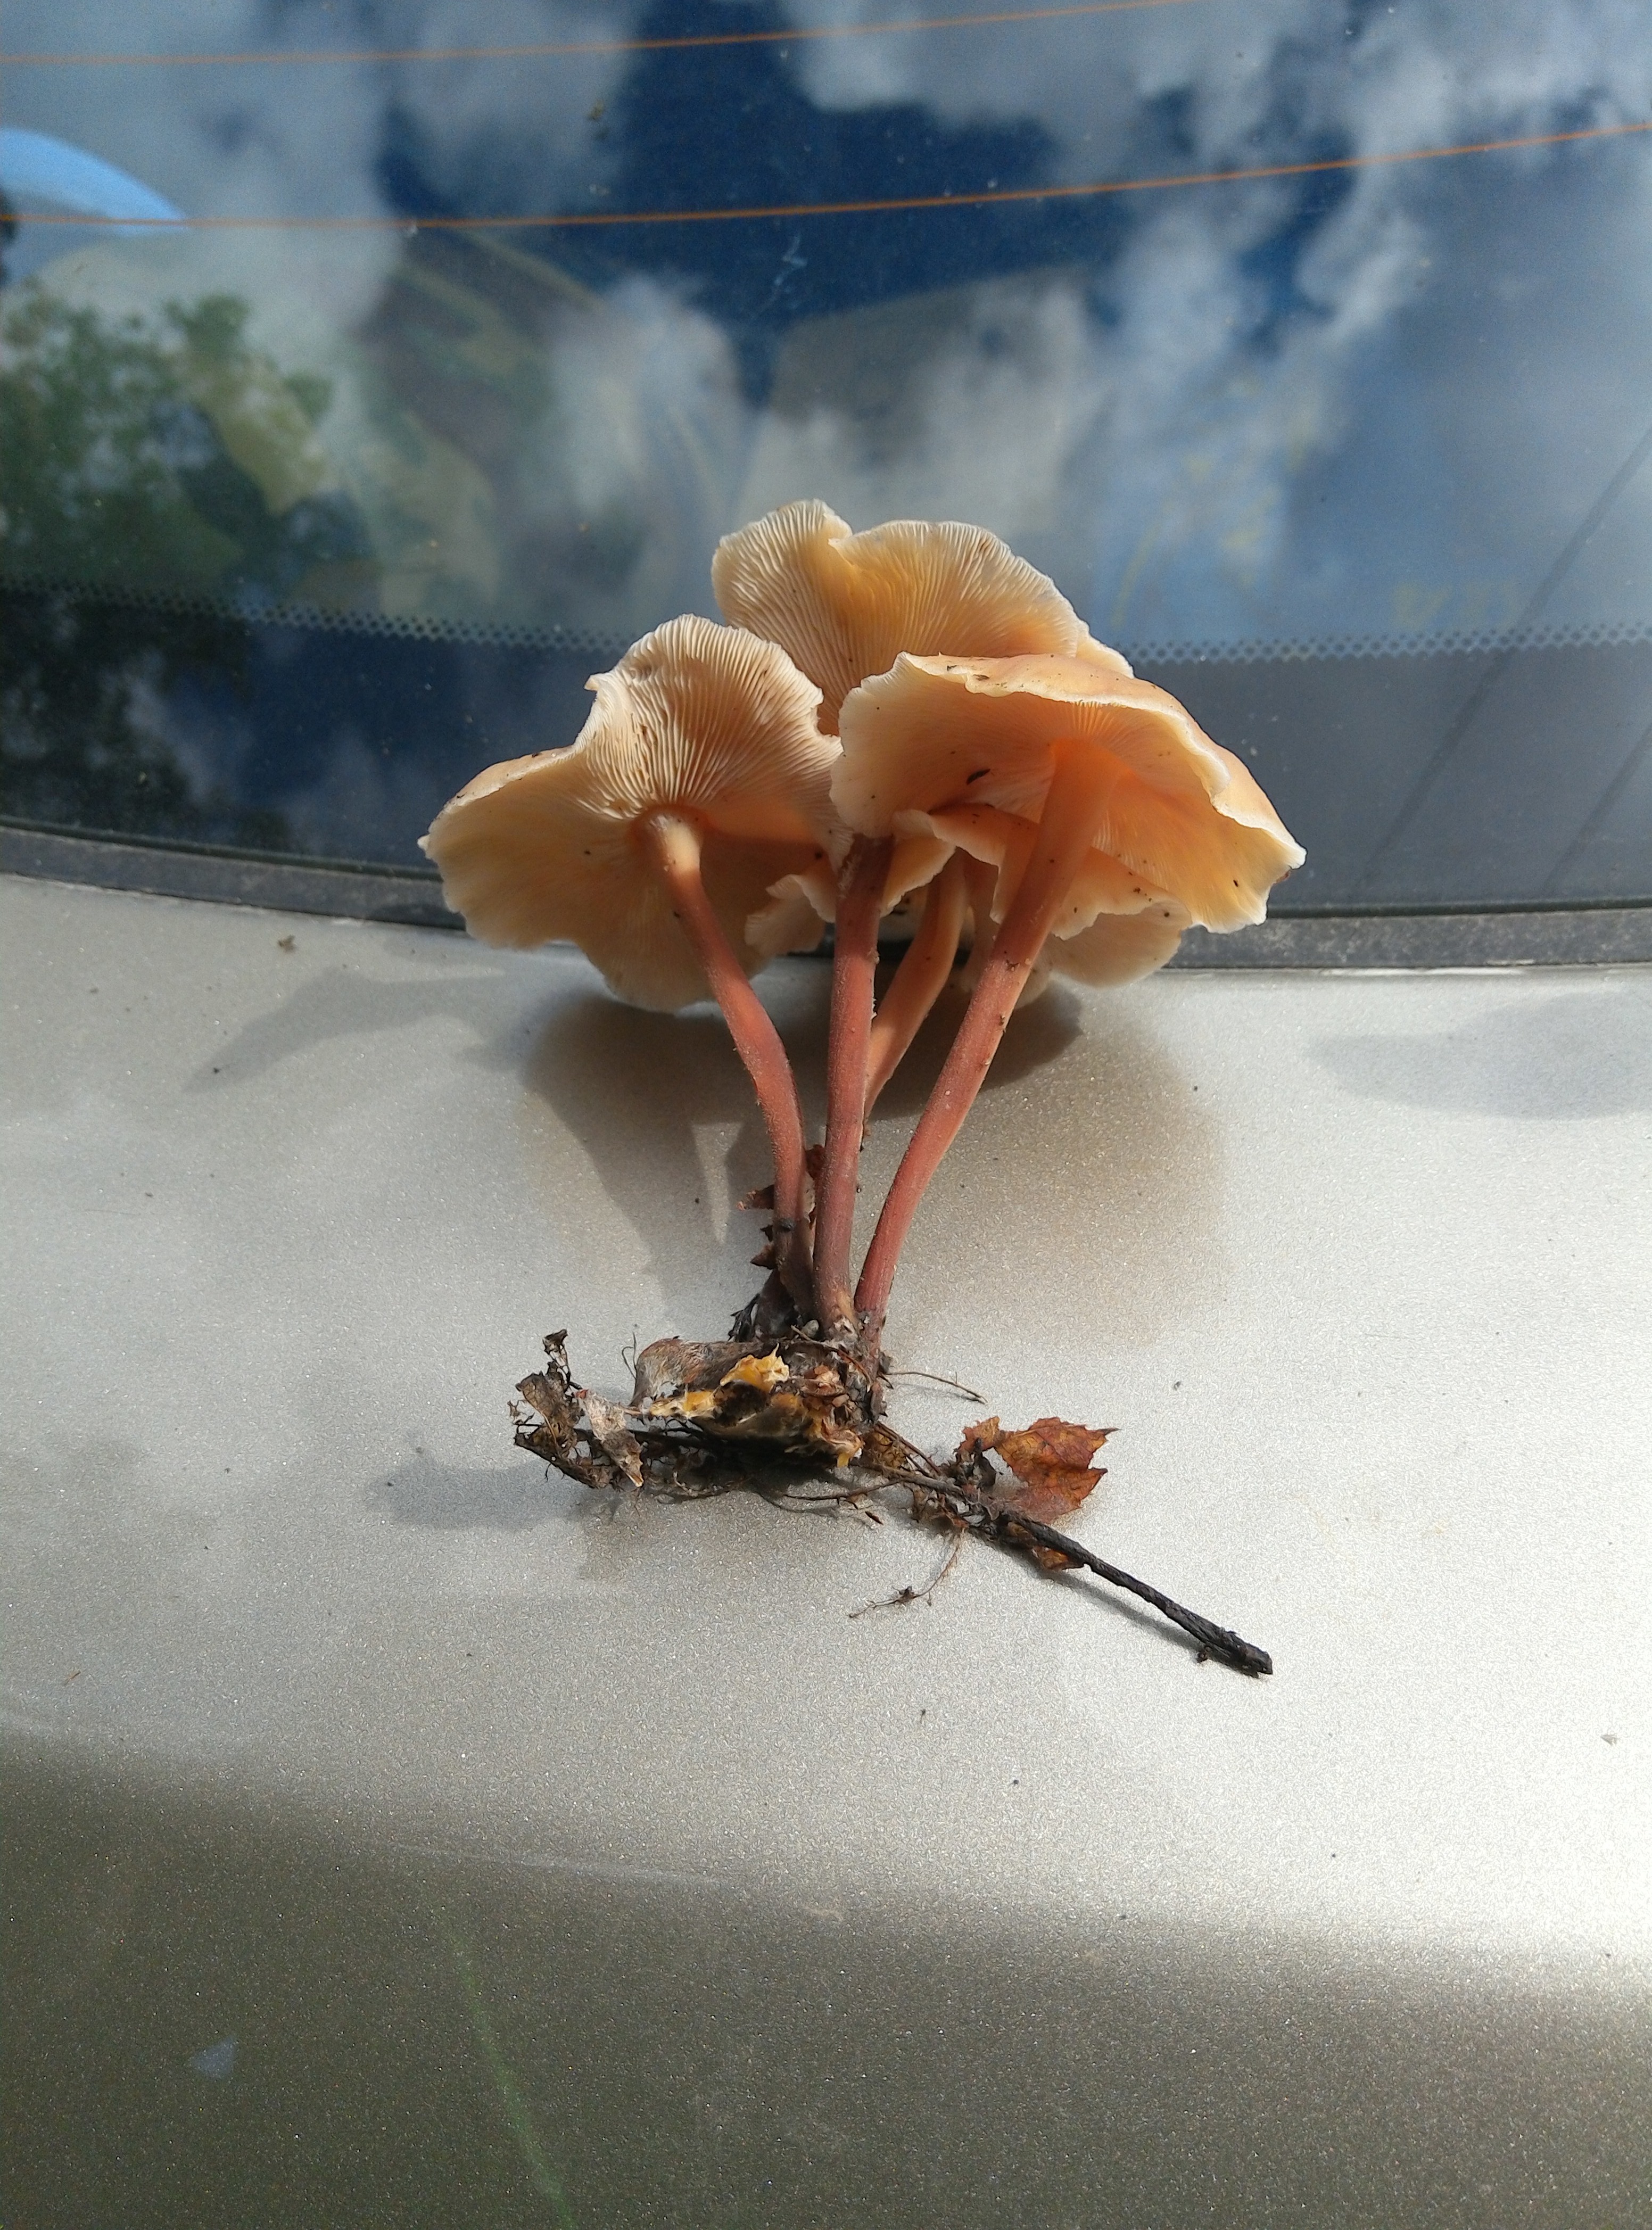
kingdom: Fungi
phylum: Basidiomycota
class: Agaricomycetes
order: Agaricales
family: Omphalotaceae
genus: Collybiopsis
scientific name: Collybiopsis confluens
